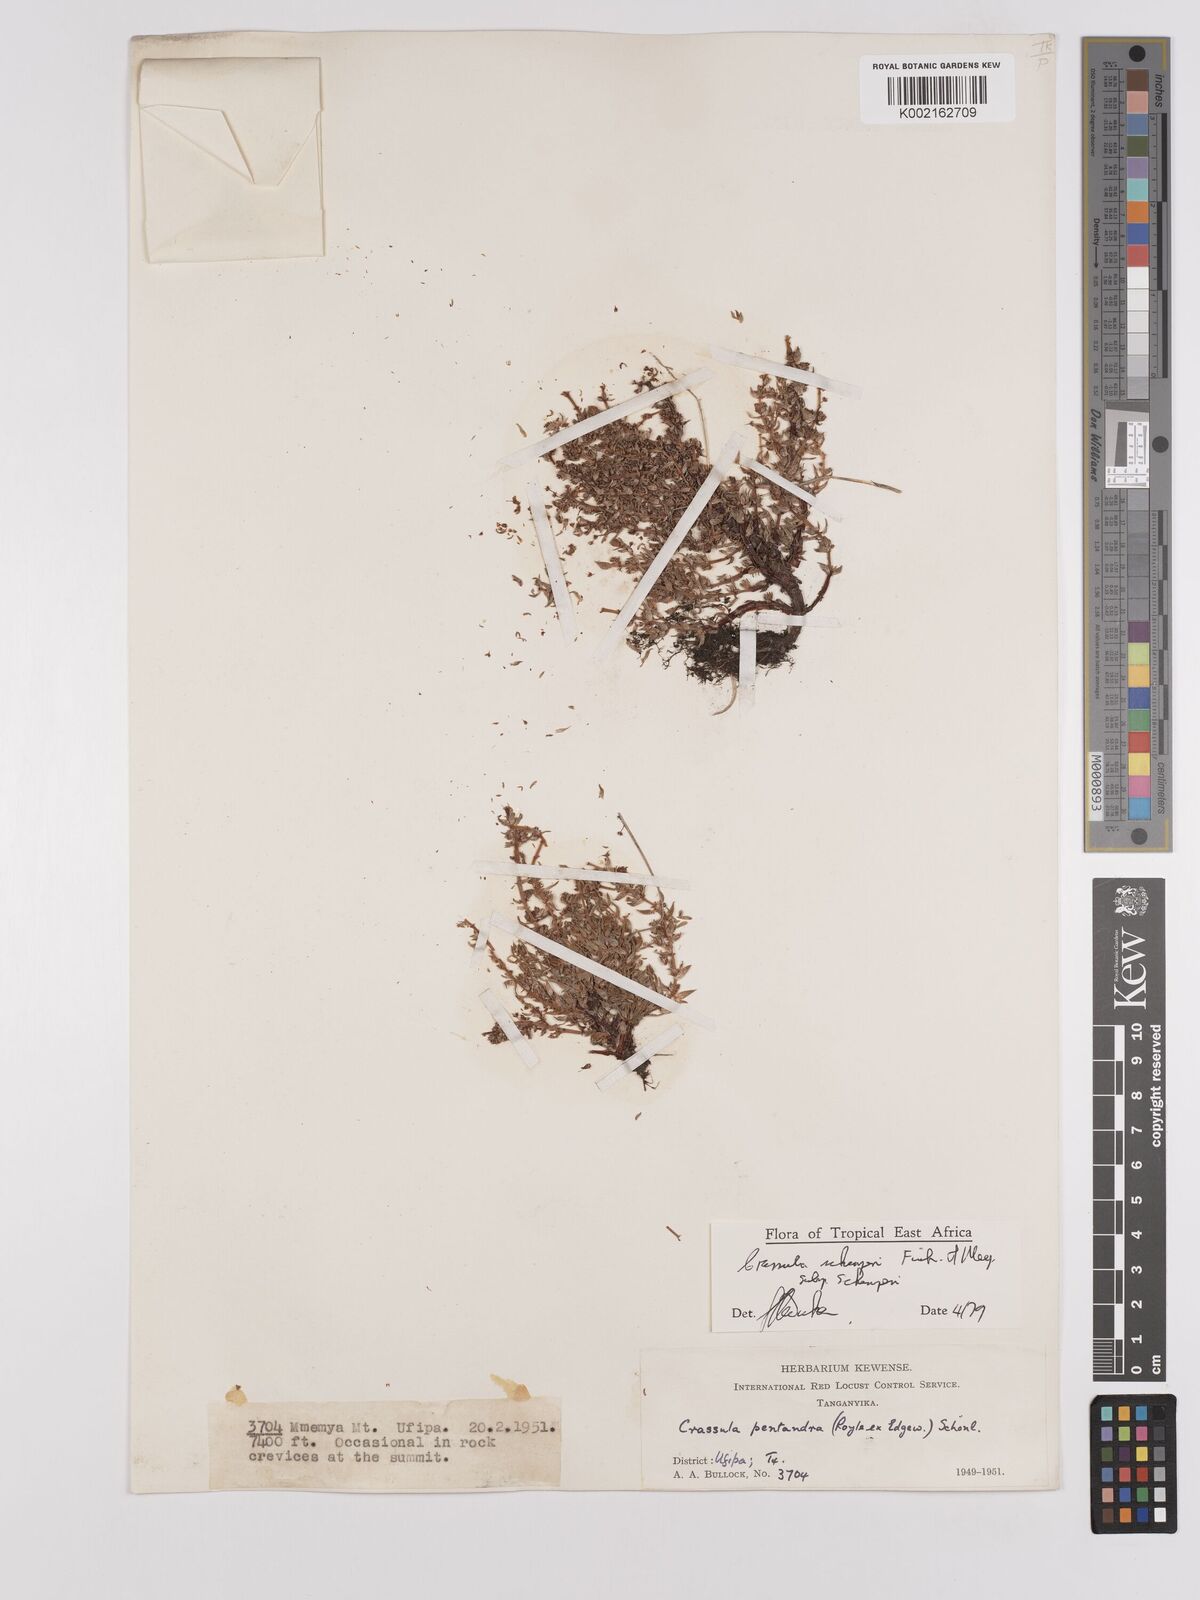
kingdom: Plantae
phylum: Tracheophyta
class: Magnoliopsida
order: Saxifragales
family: Crassulaceae
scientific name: Crassulaceae
